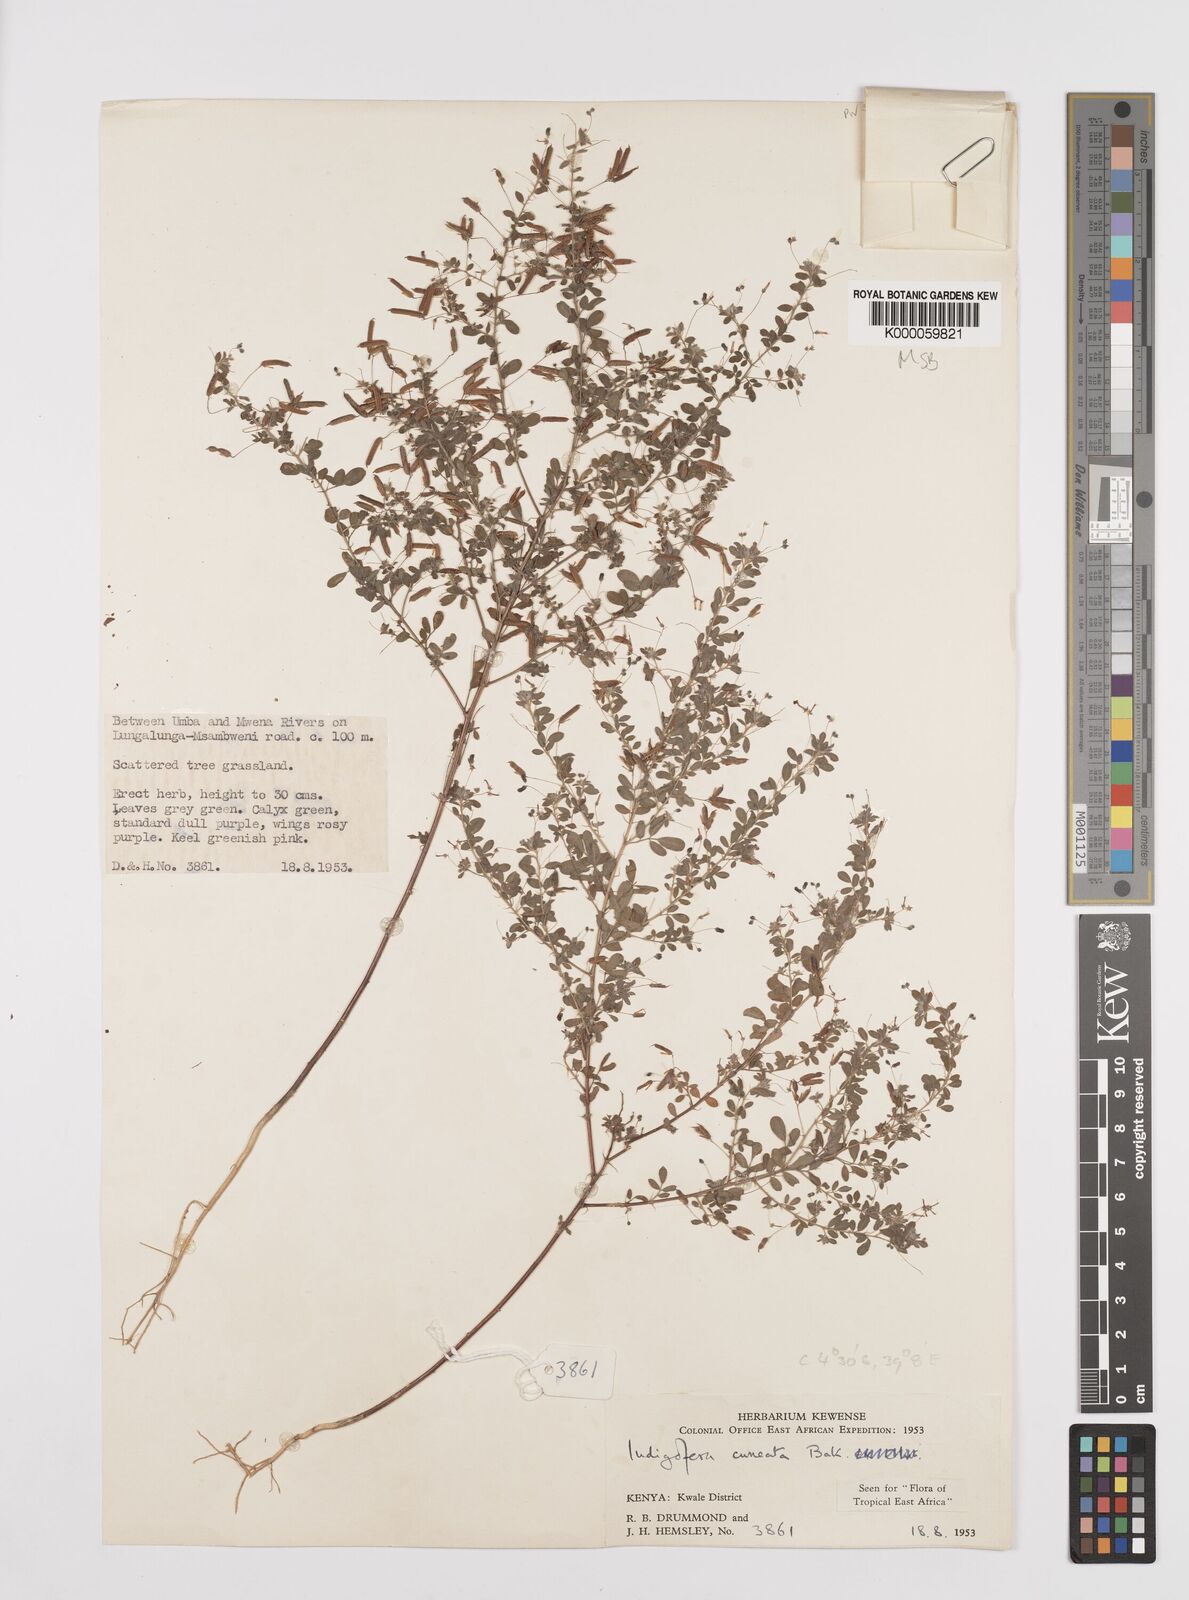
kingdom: Plantae
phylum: Tracheophyta
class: Magnoliopsida
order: Fabales
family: Fabaceae
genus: Indigofera
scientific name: Indigofera cuneata
